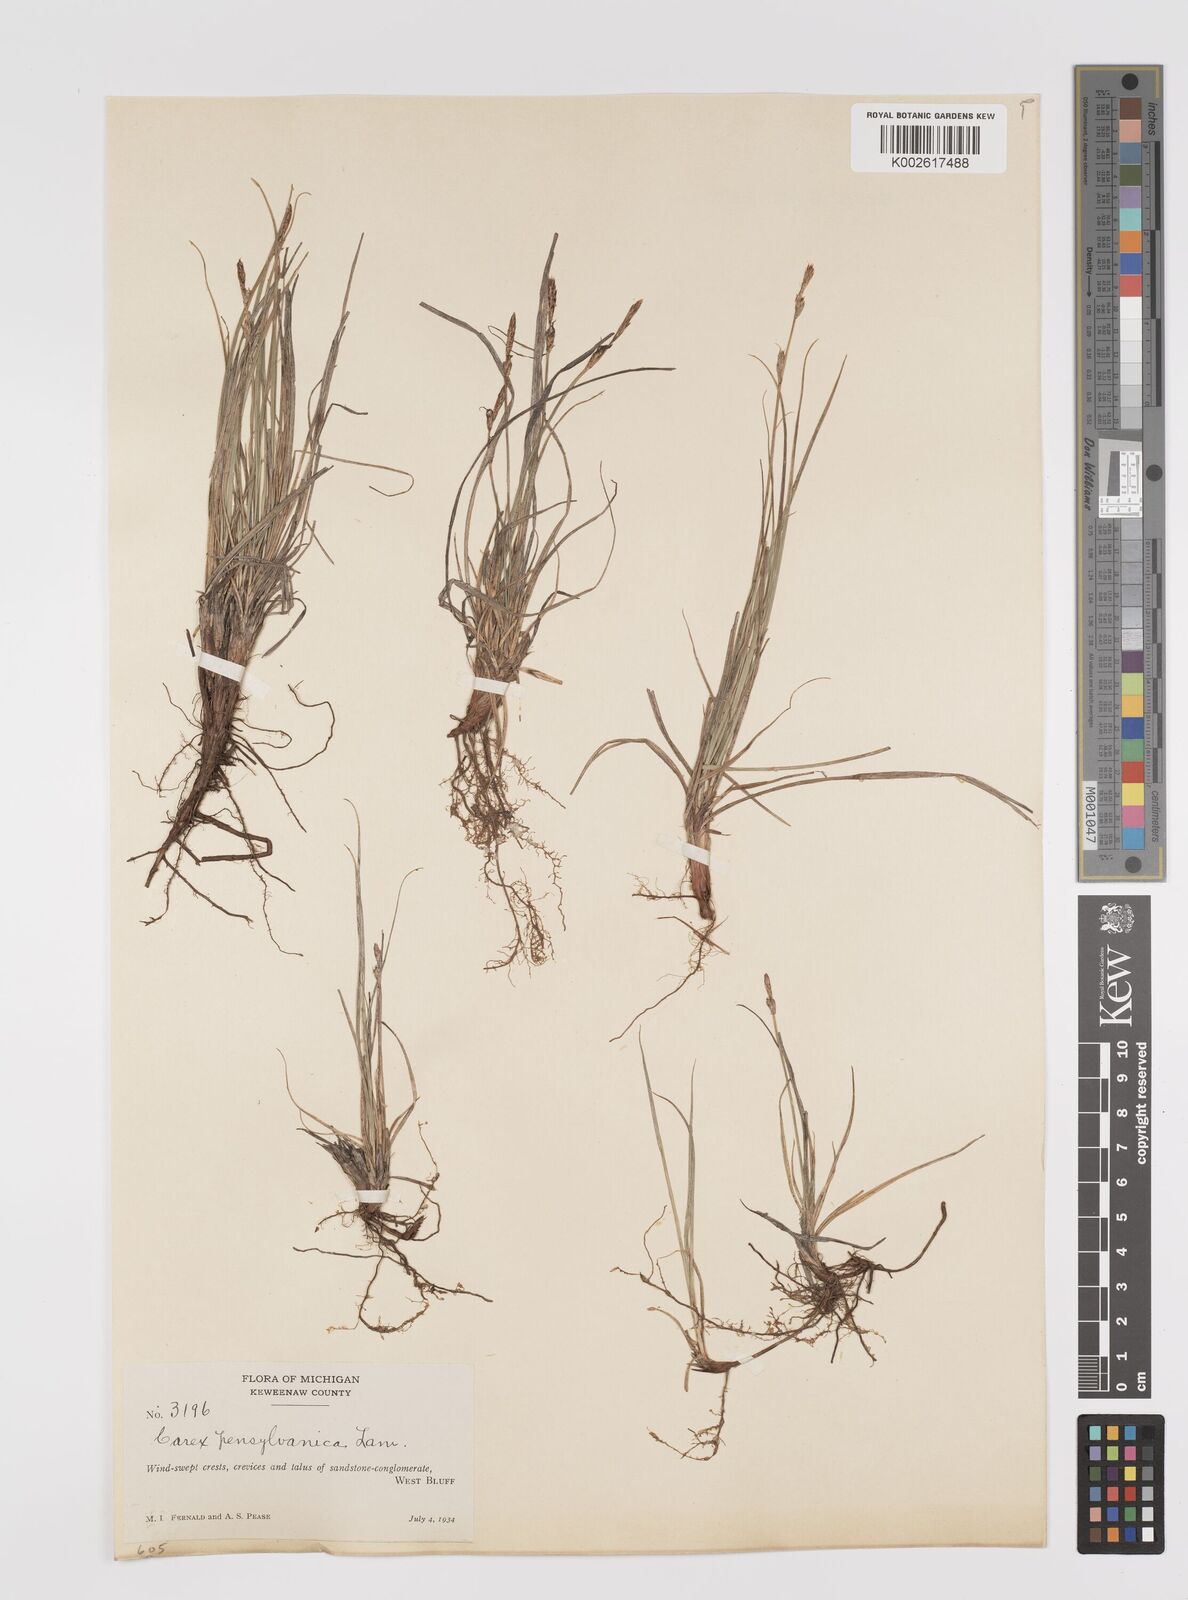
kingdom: Plantae
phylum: Tracheophyta
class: Liliopsida
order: Poales
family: Cyperaceae
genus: Carex
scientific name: Carex pensylvanica
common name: Common oak sedge
